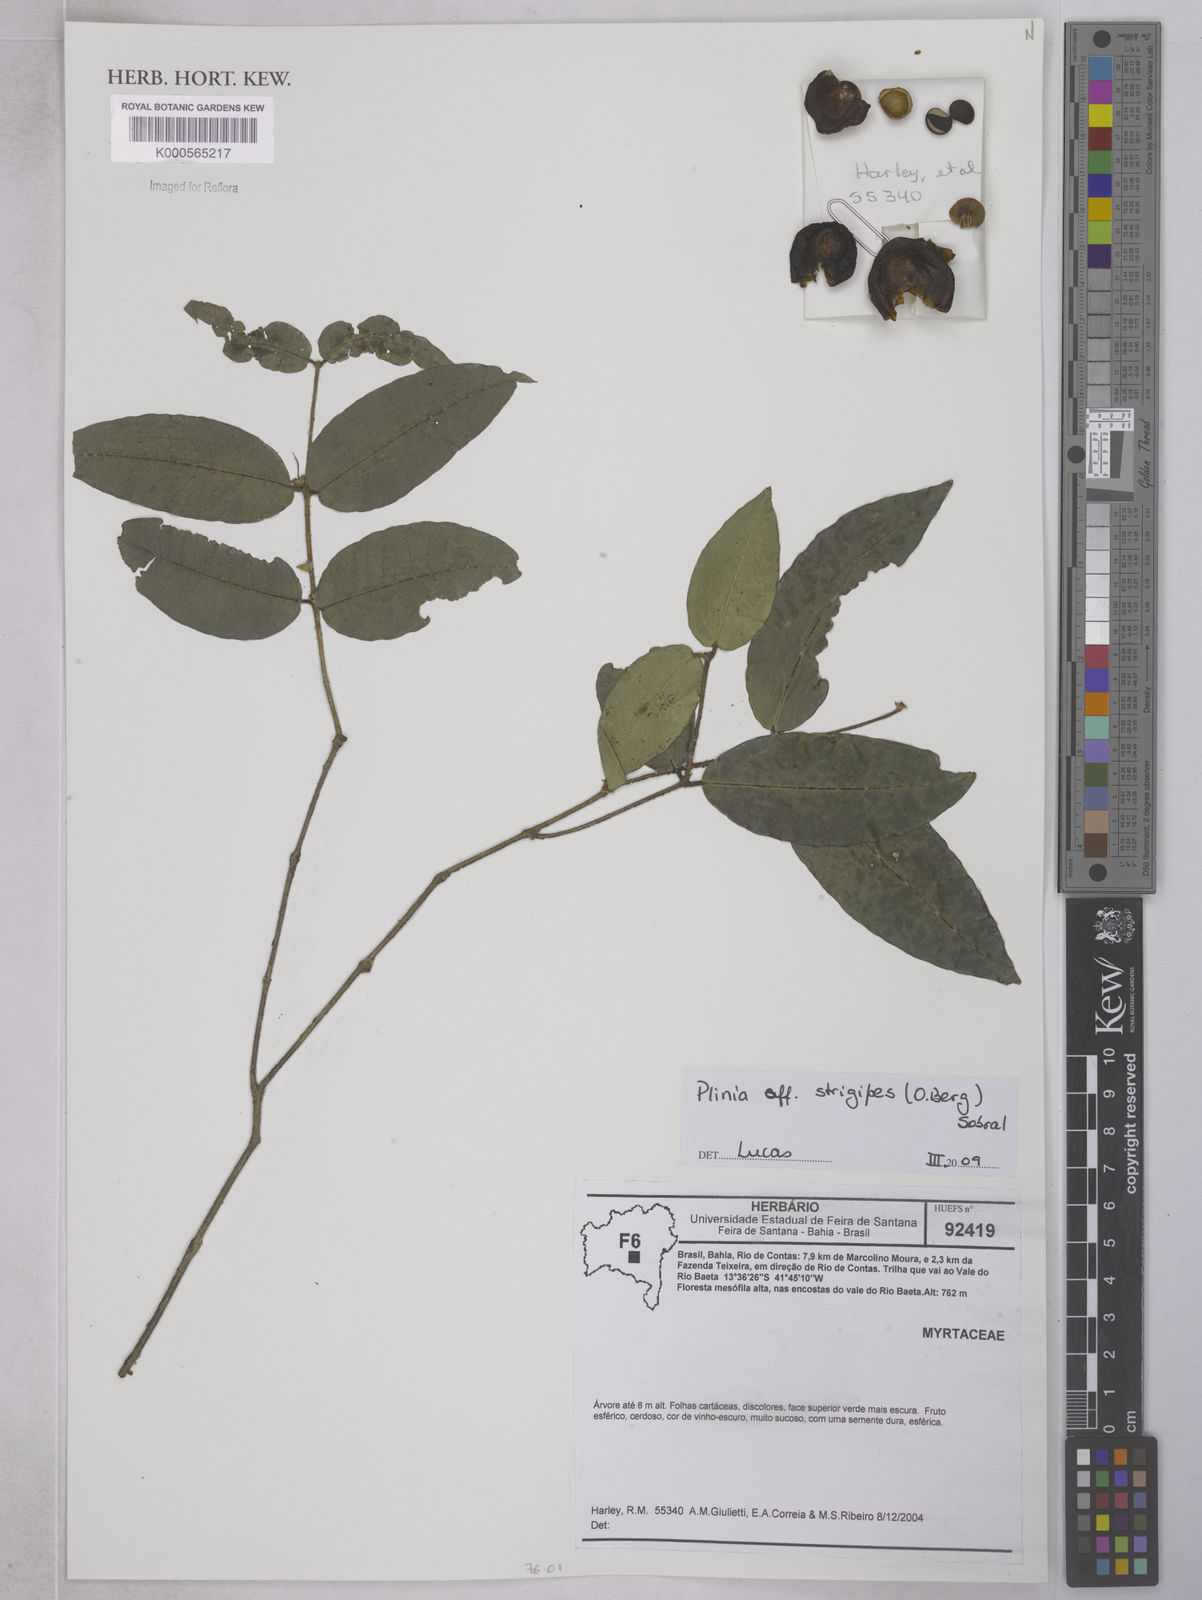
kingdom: Plantae
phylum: Tracheophyta
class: Magnoliopsida
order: Myrtales
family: Myrtaceae
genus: Myrciaria
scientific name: Myrciaria strigipes
